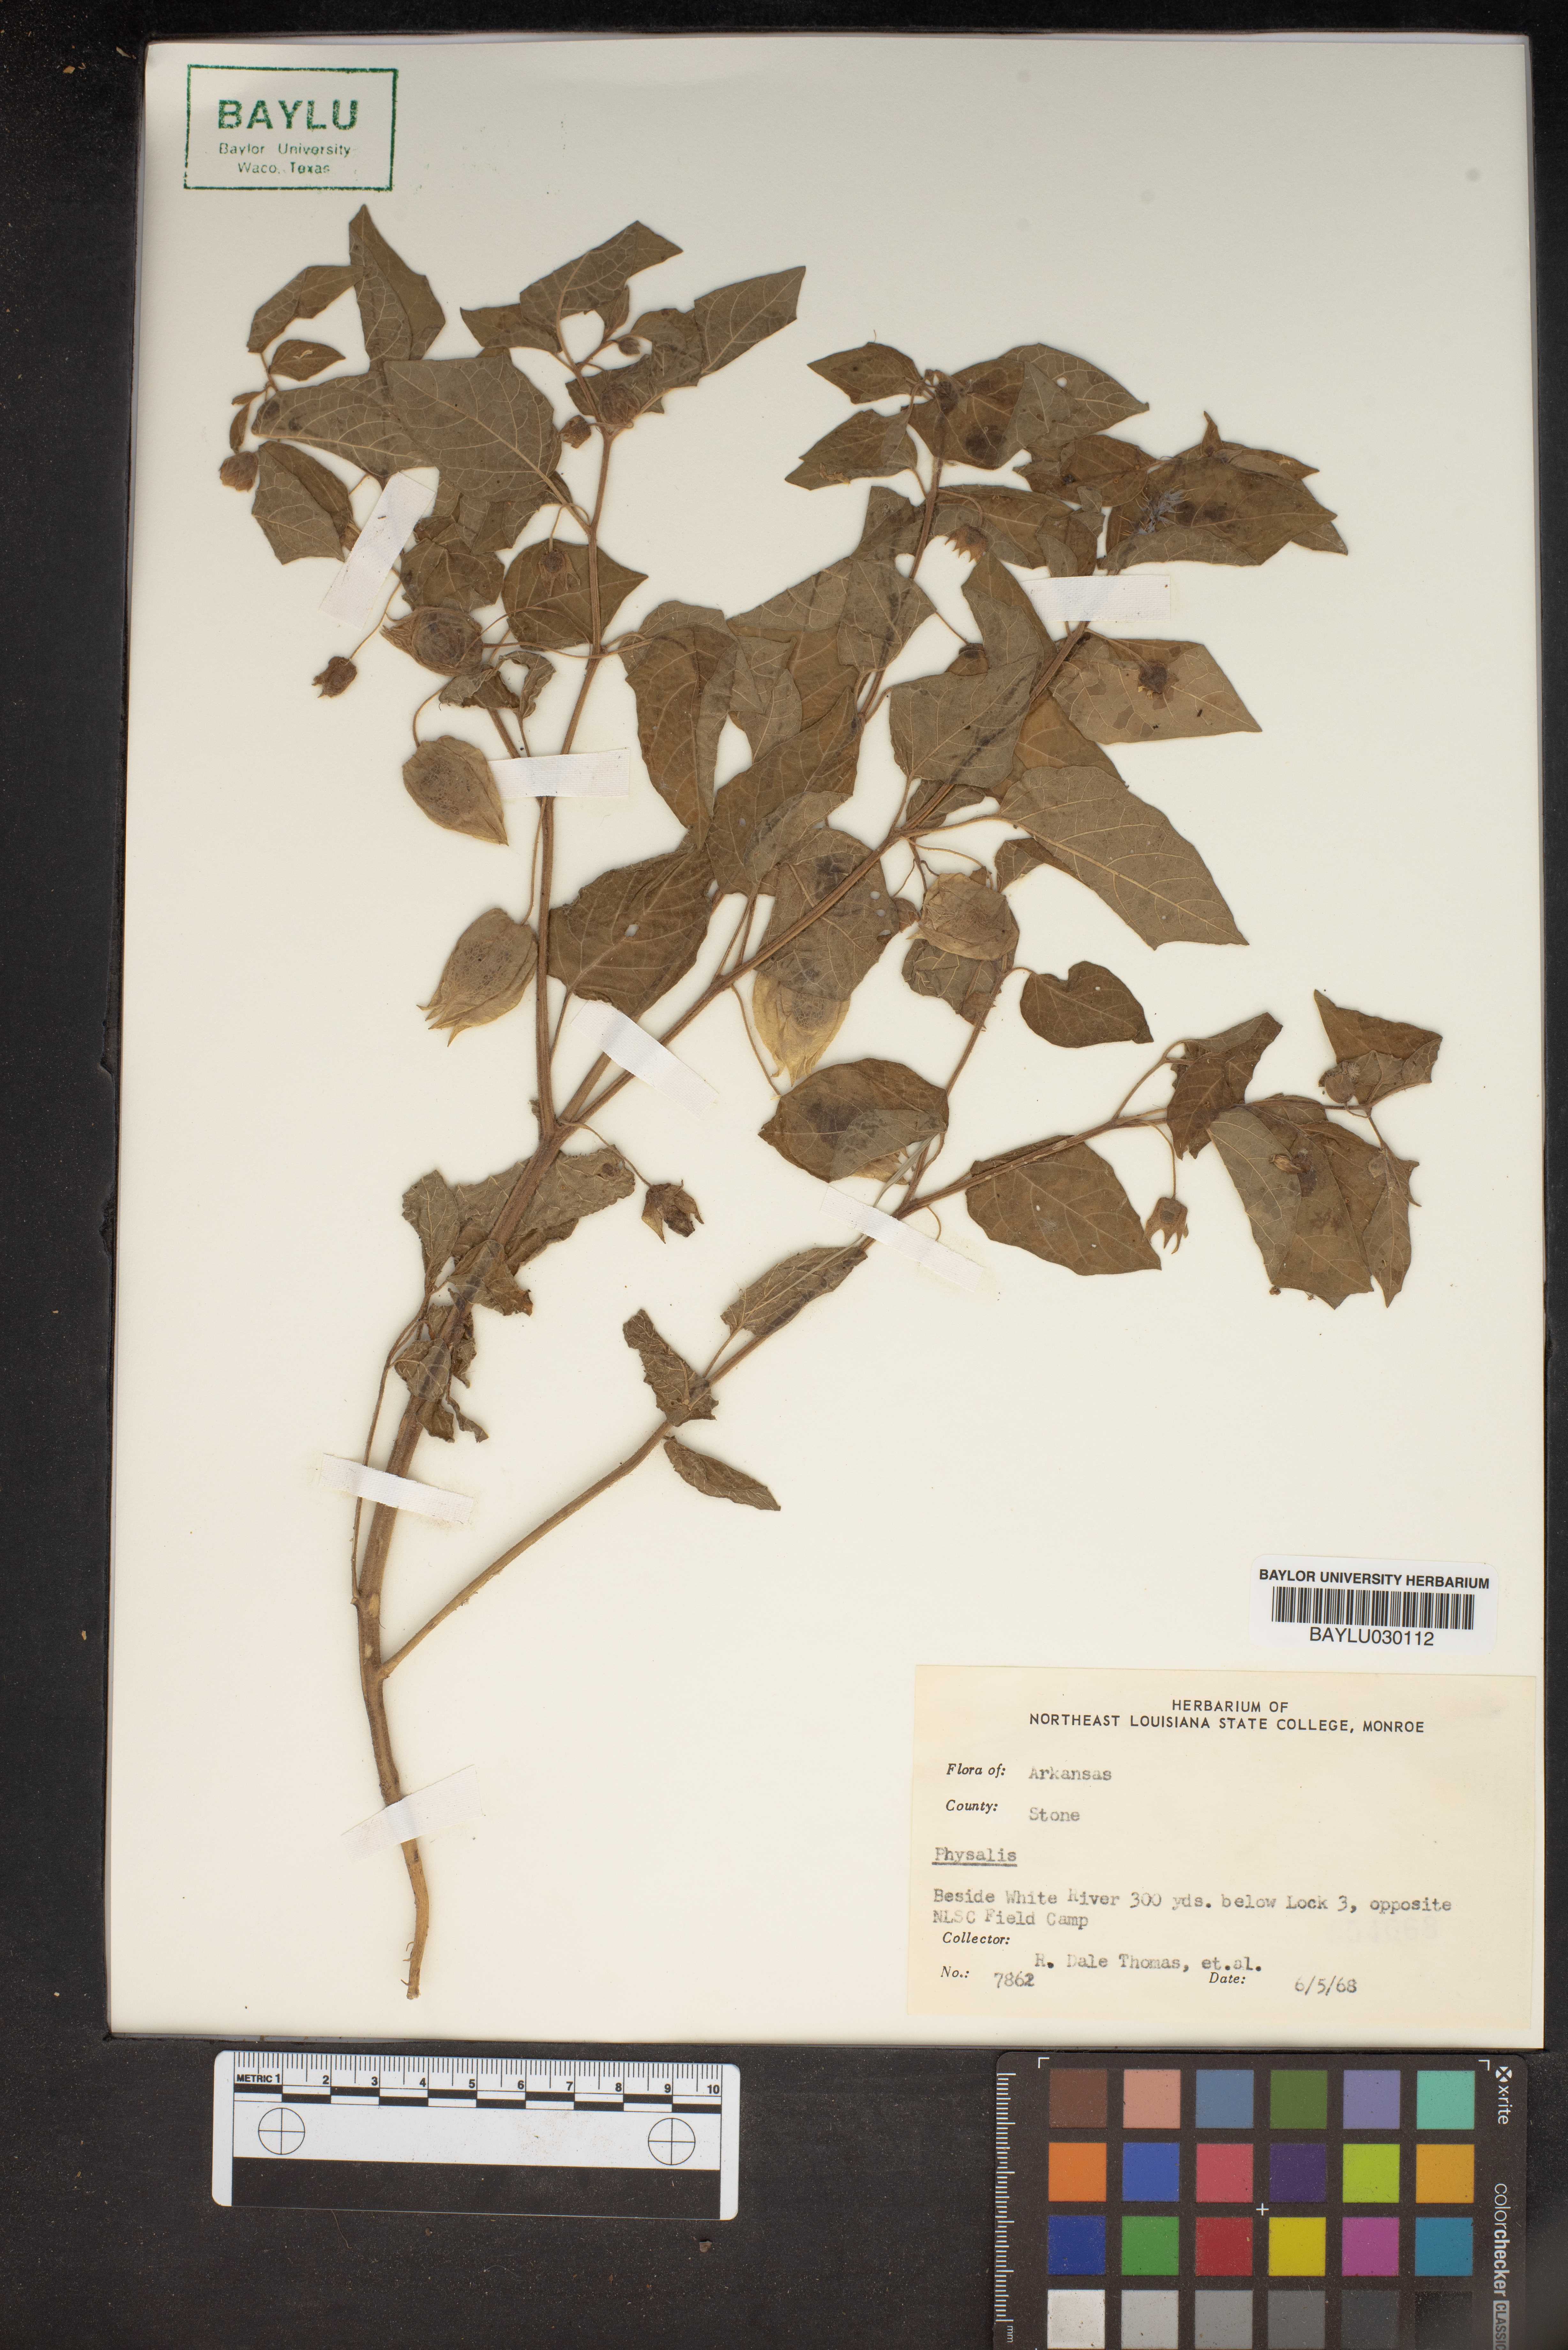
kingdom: Plantae
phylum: Tracheophyta
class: Magnoliopsida
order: Solanales
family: Solanaceae
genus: Physalis
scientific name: Physalis
